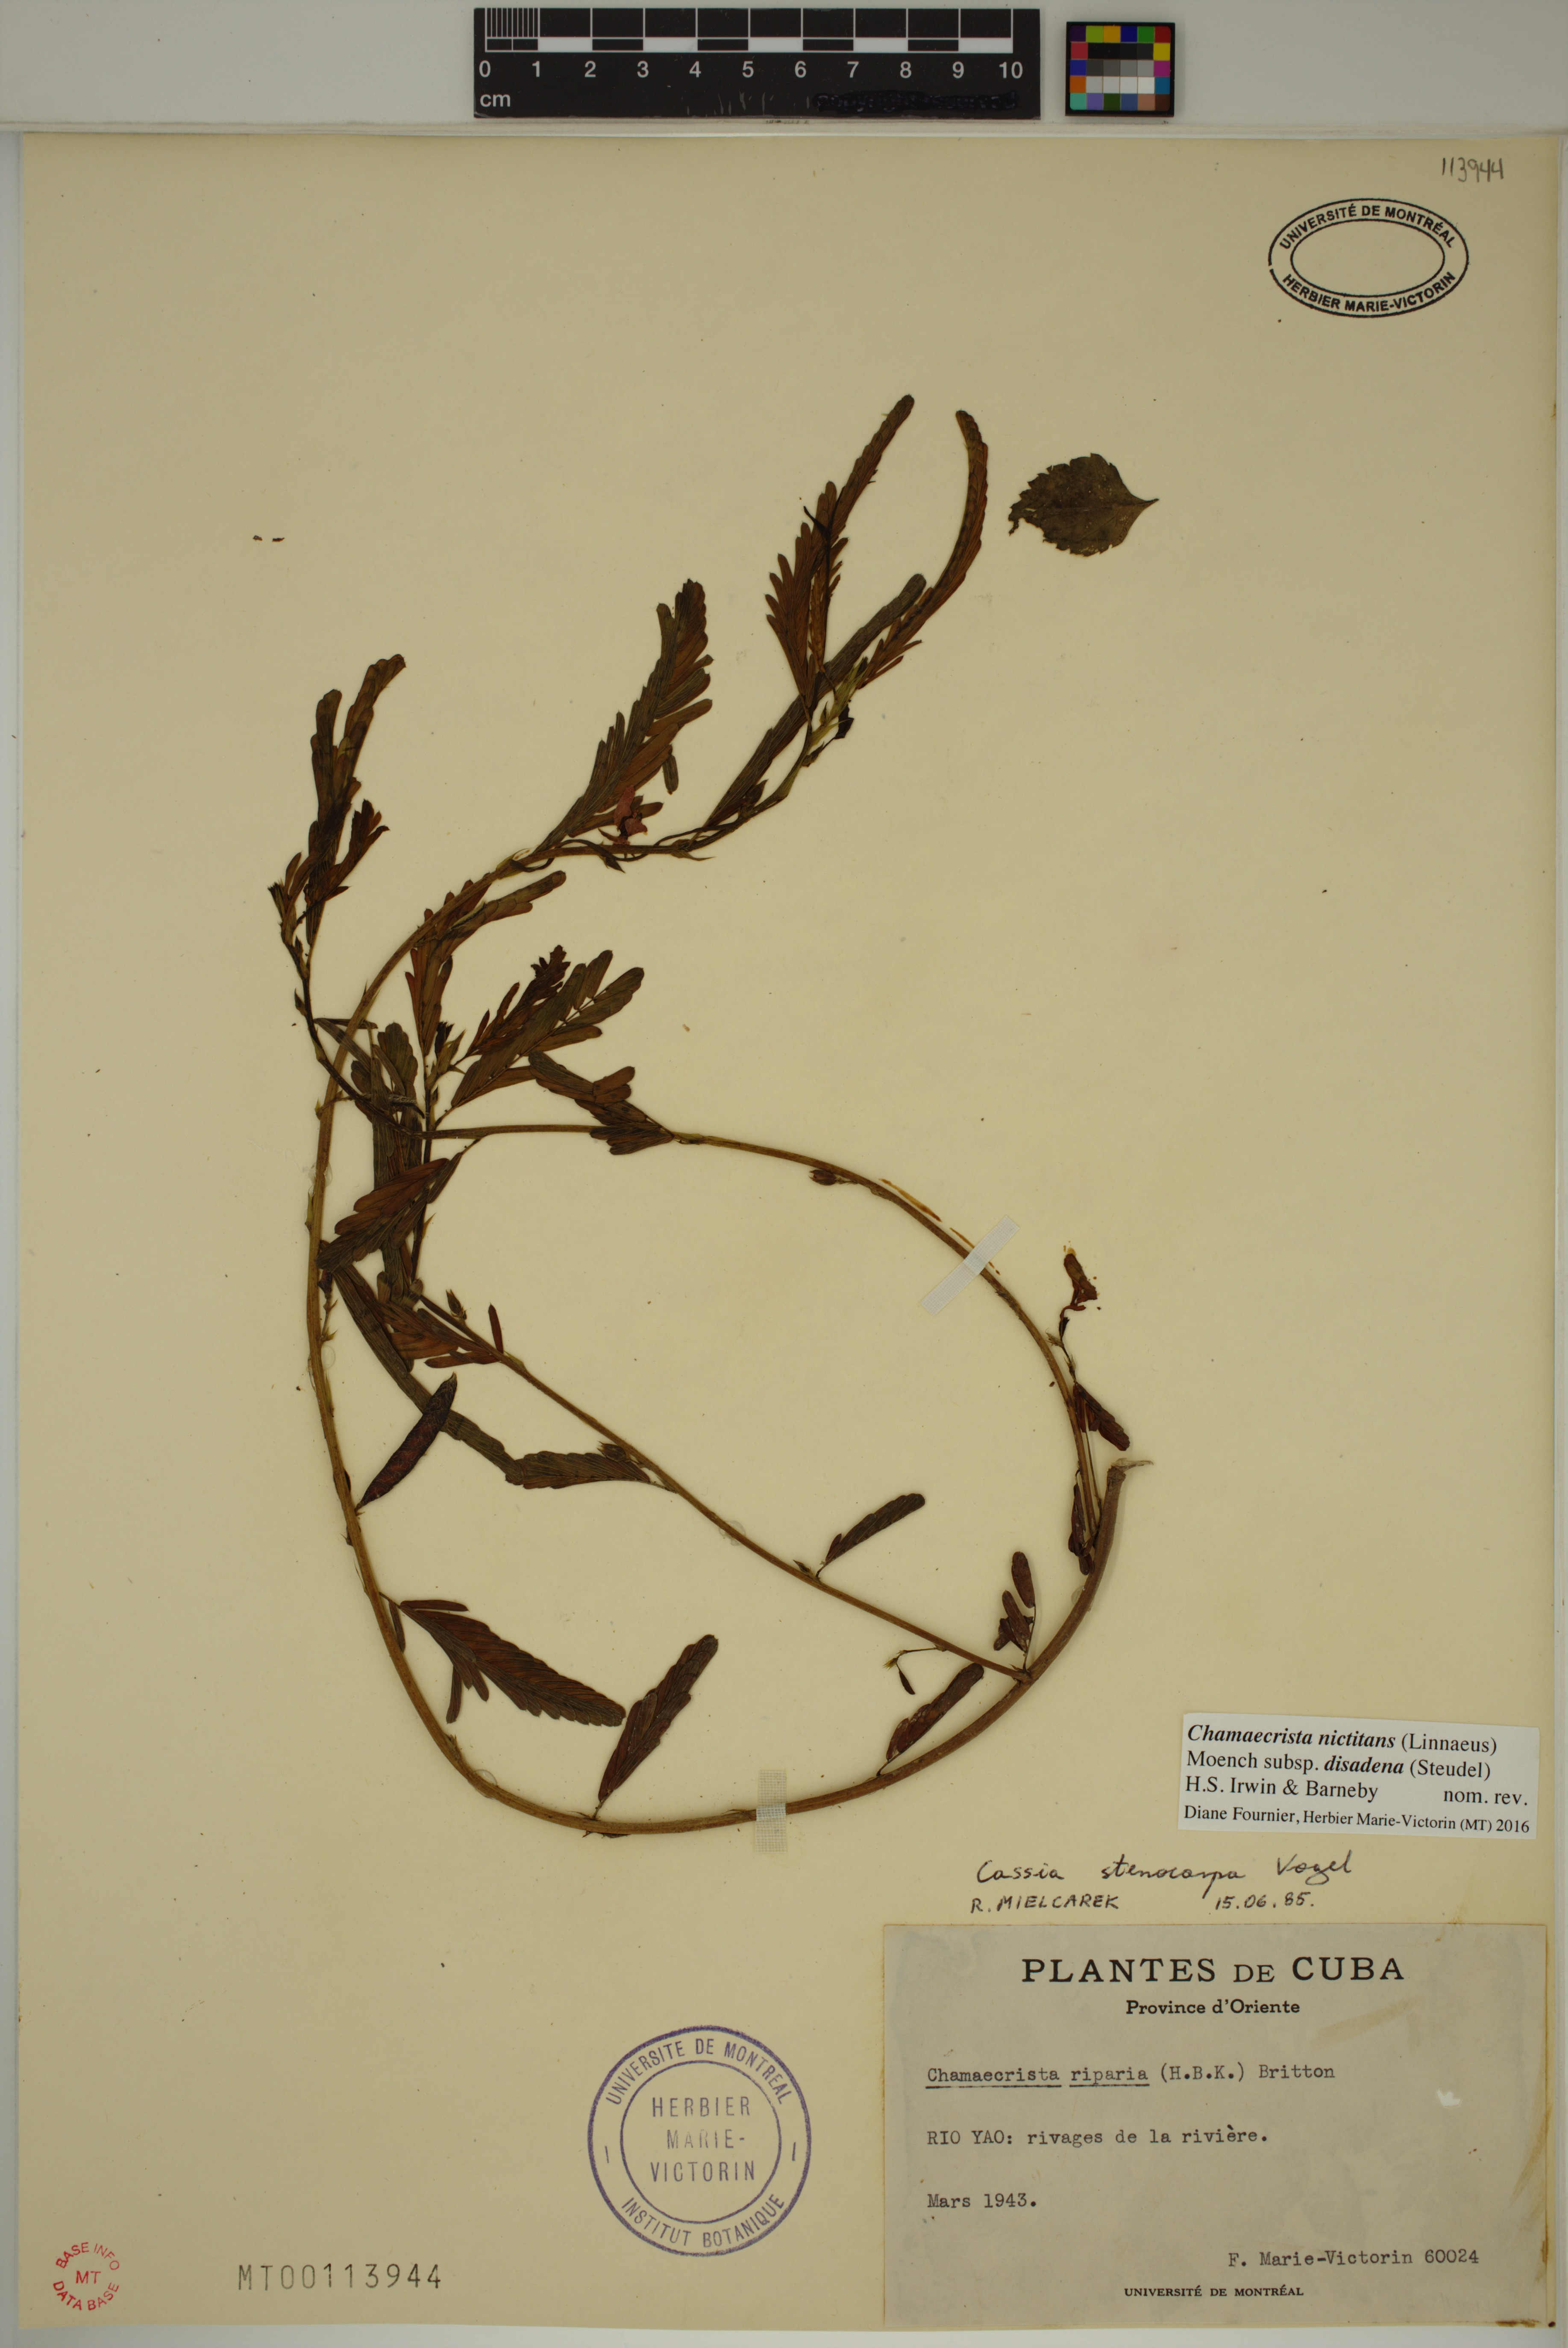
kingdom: Plantae
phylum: Tracheophyta
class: Magnoliopsida
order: Fabales
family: Fabaceae
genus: Chamaecrista
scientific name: Chamaecrista nictitans
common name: Sensitive cassia
